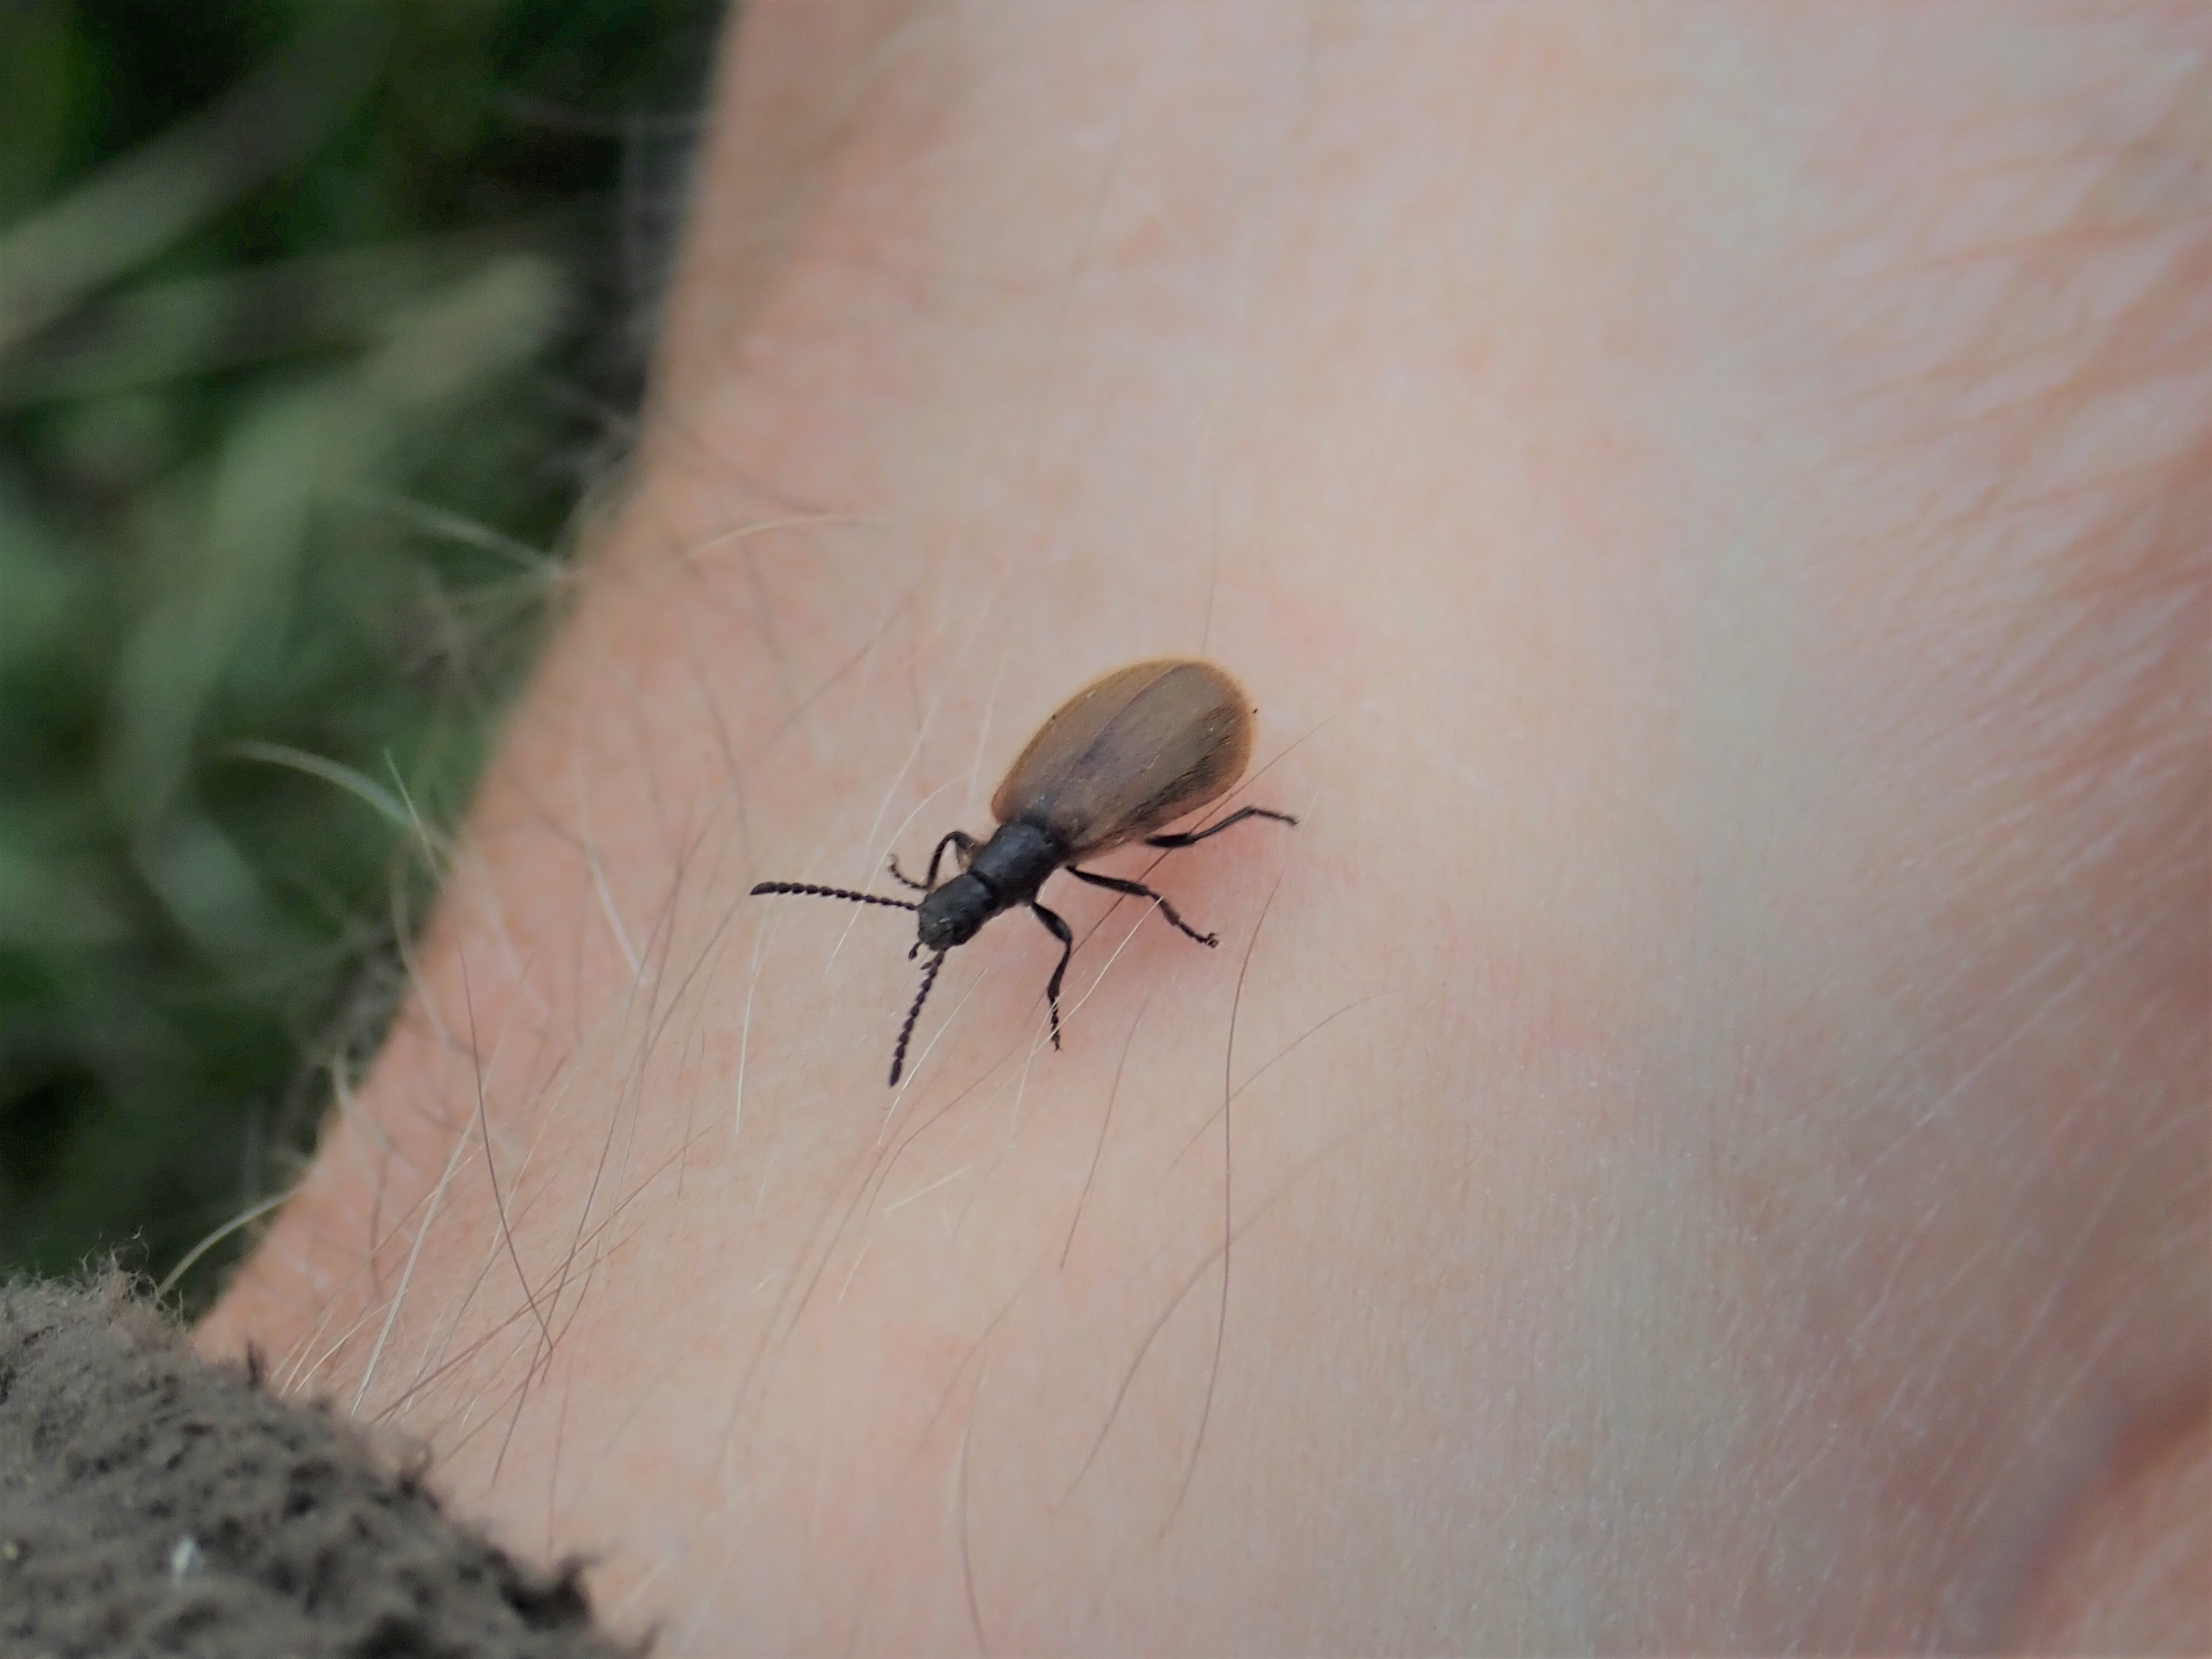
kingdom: Animalia
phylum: Arthropoda
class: Insecta
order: Coleoptera
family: Tenebrionidae
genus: Lagria
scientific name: Lagria hirta
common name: Håret skyggebille
